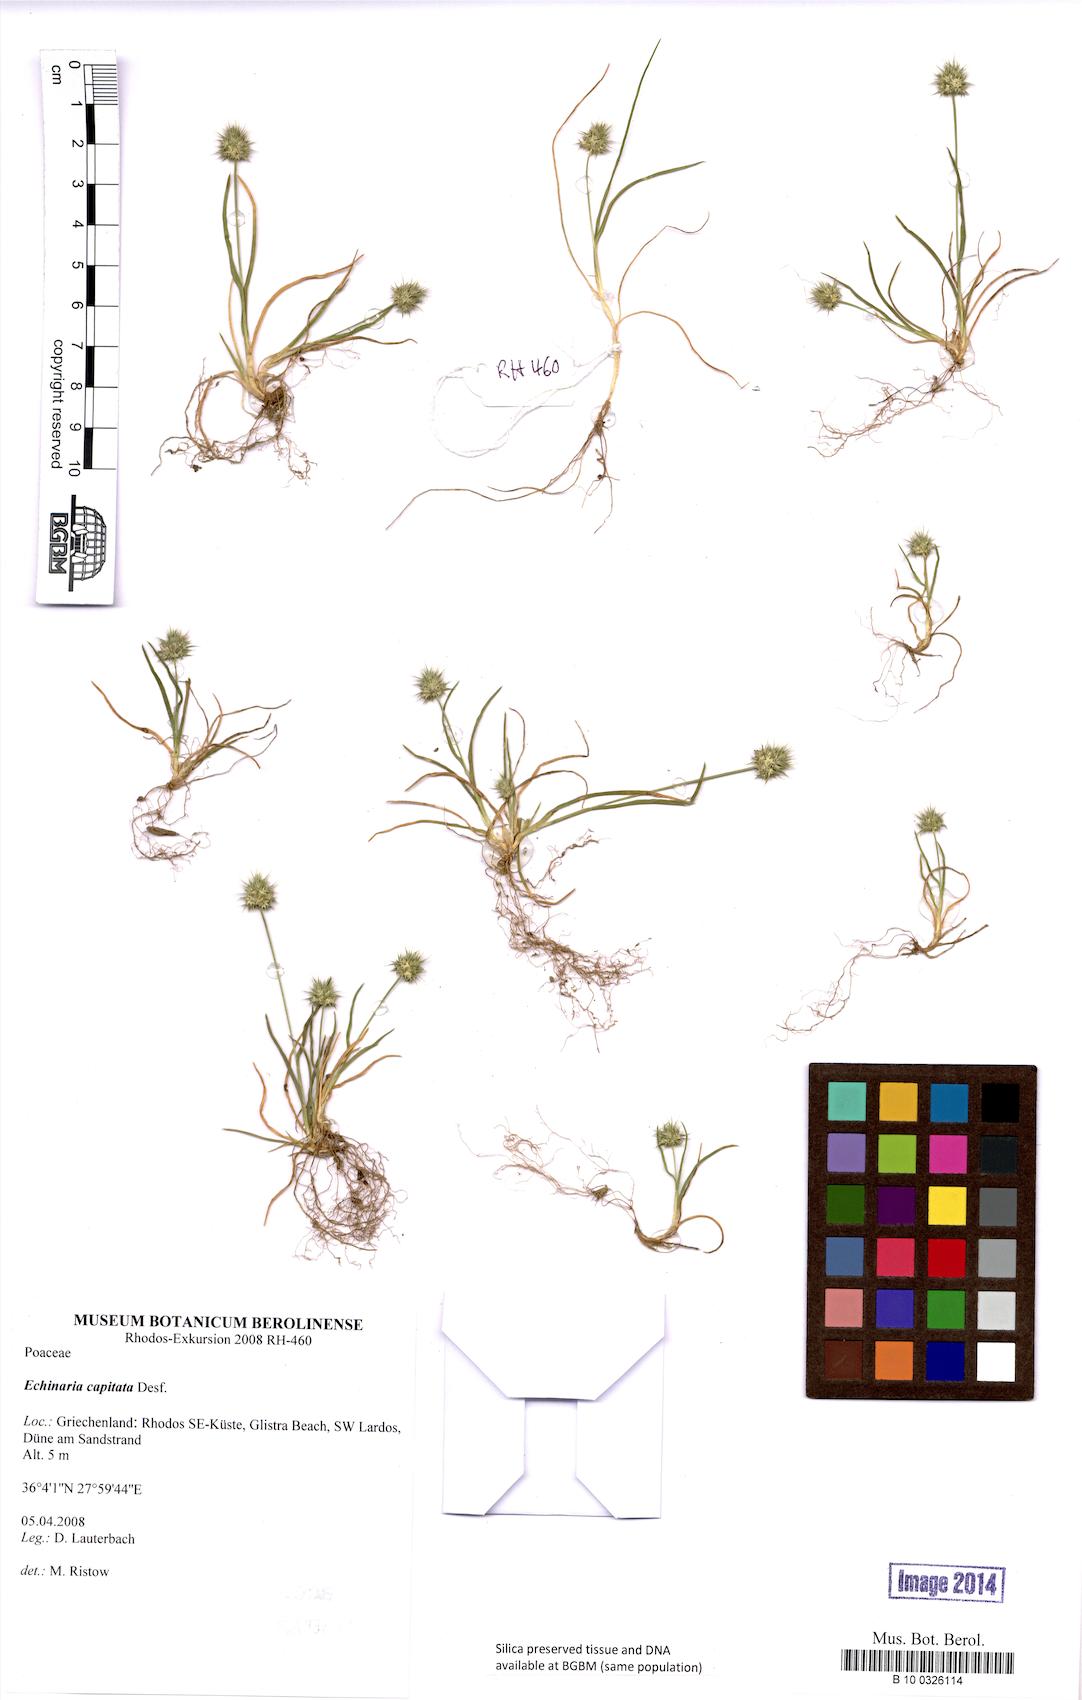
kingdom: Plantae
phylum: Tracheophyta
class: Liliopsida
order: Poales
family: Poaceae
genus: Echinaria
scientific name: Echinaria capitata
